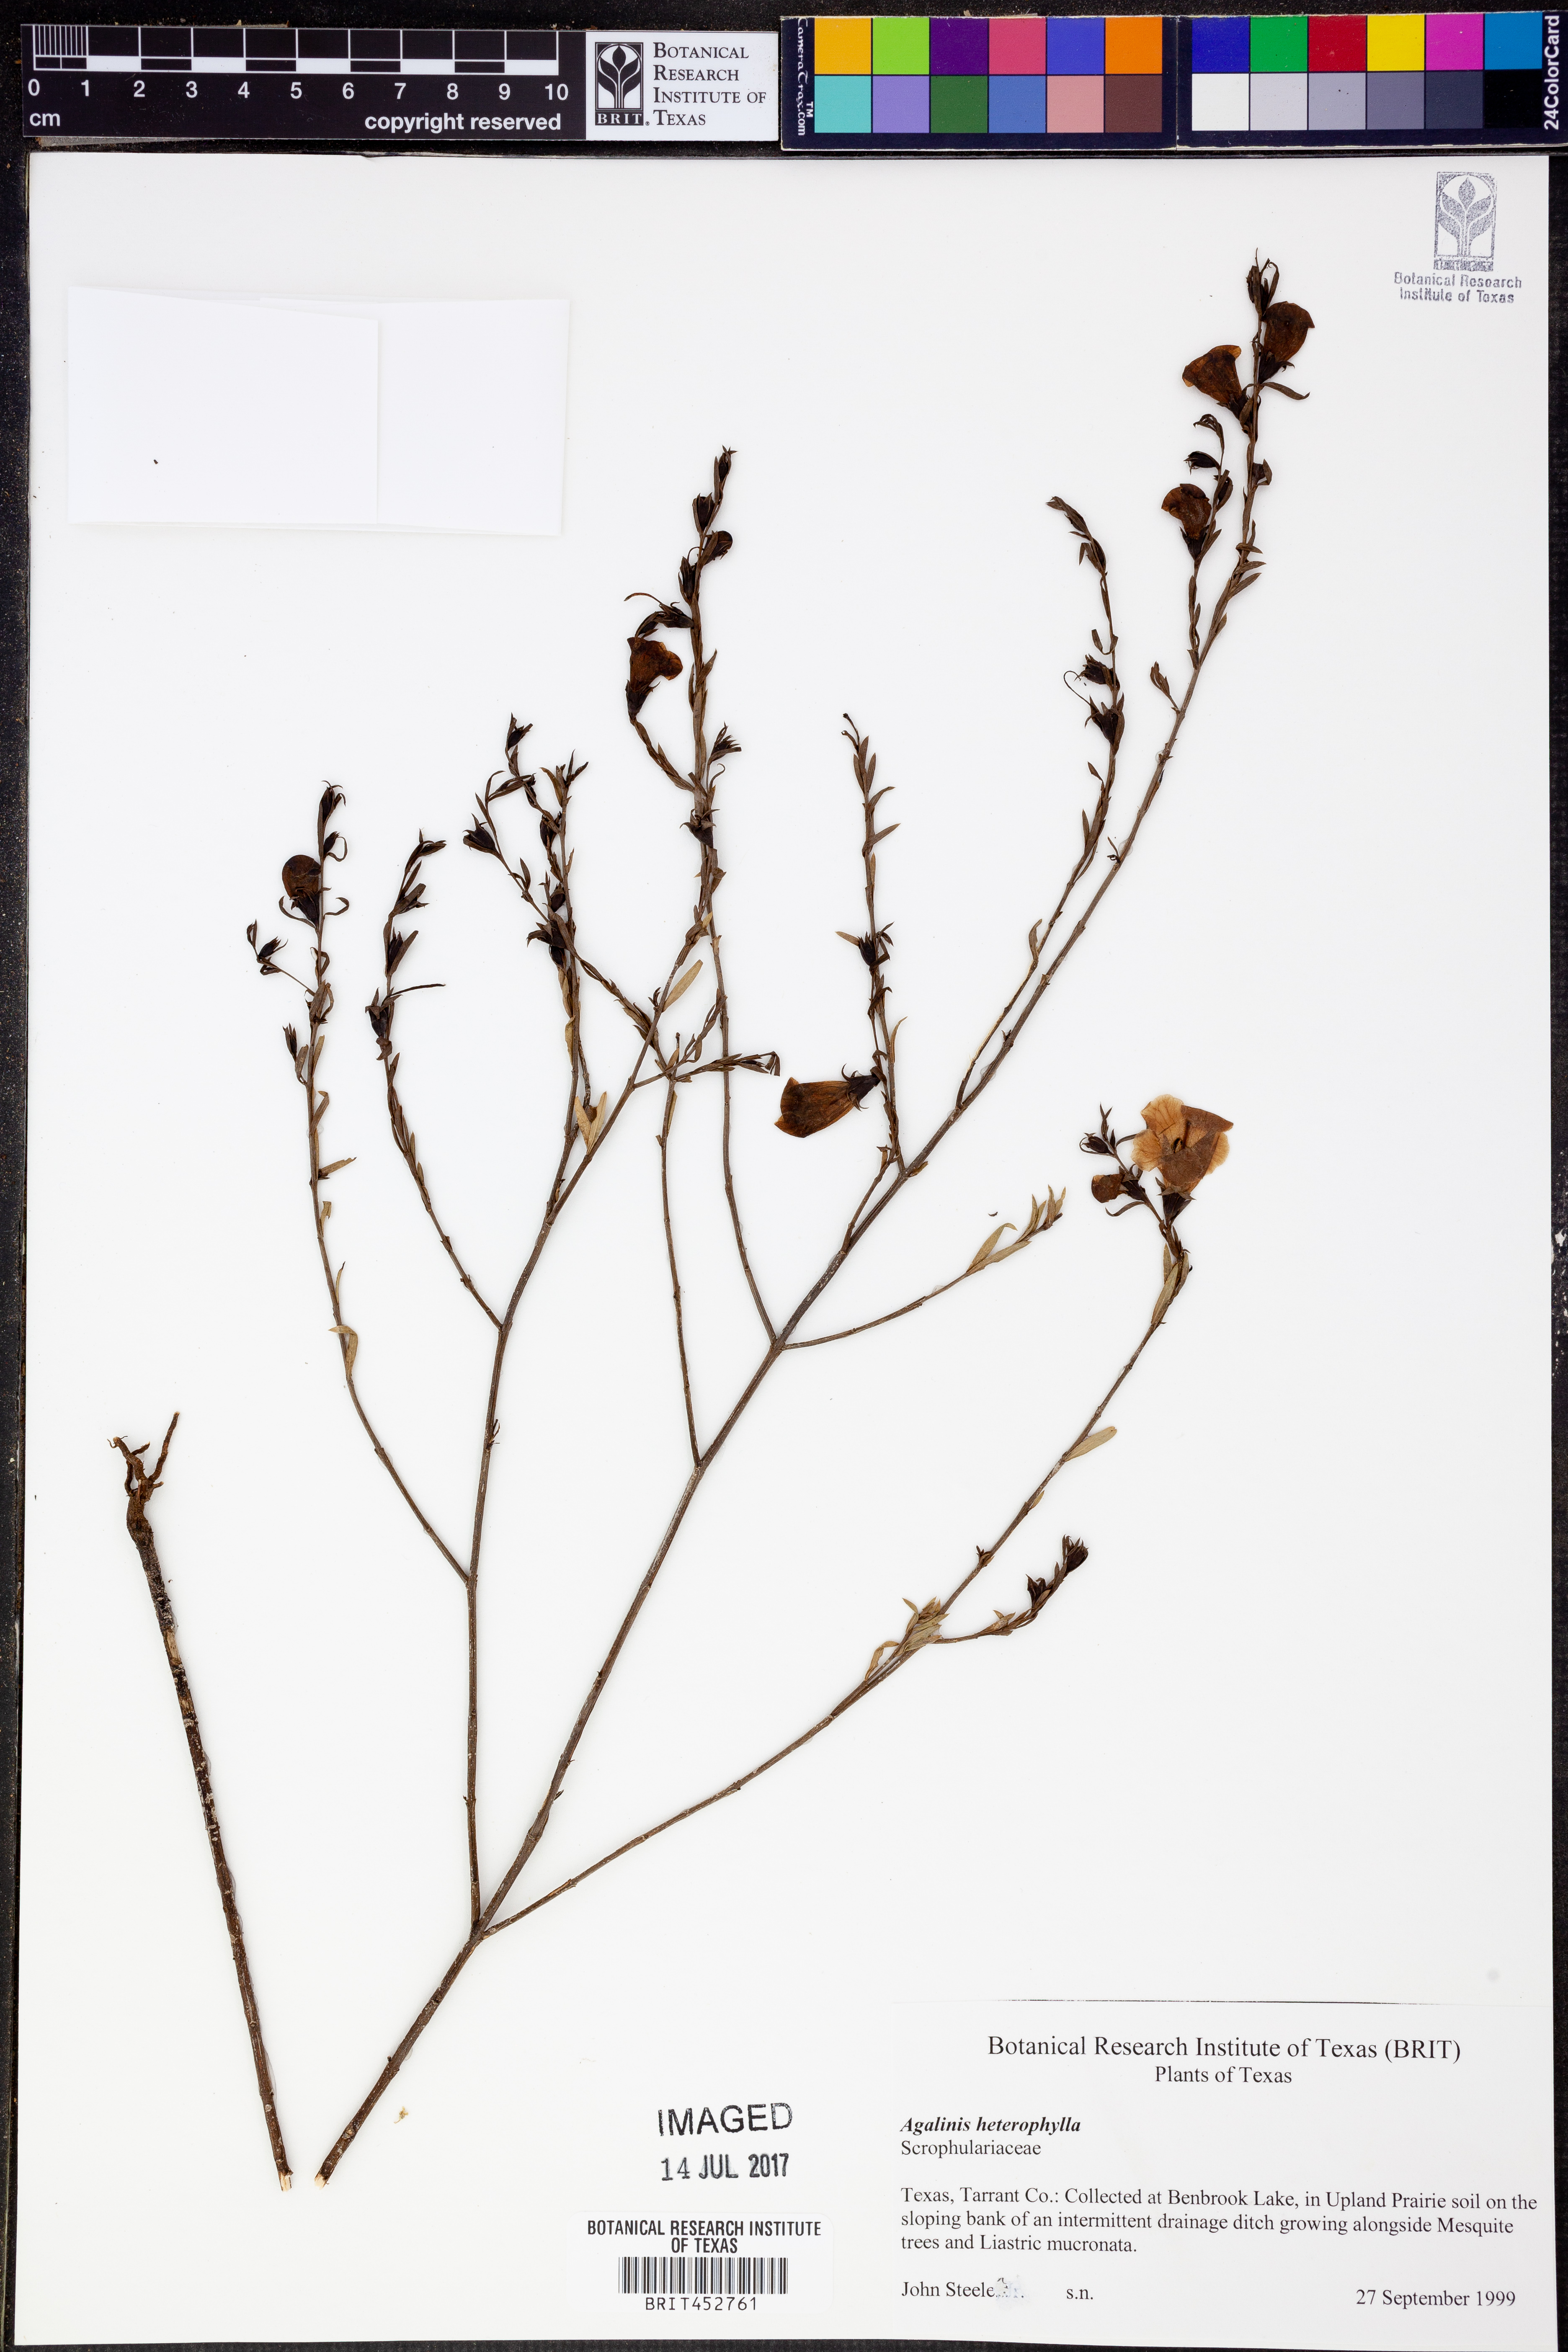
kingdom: Plantae
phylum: Tracheophyta
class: Magnoliopsida
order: Lamiales
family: Orobanchaceae
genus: Agalinis
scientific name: Agalinis heterophylla
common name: Prairie agalinis
